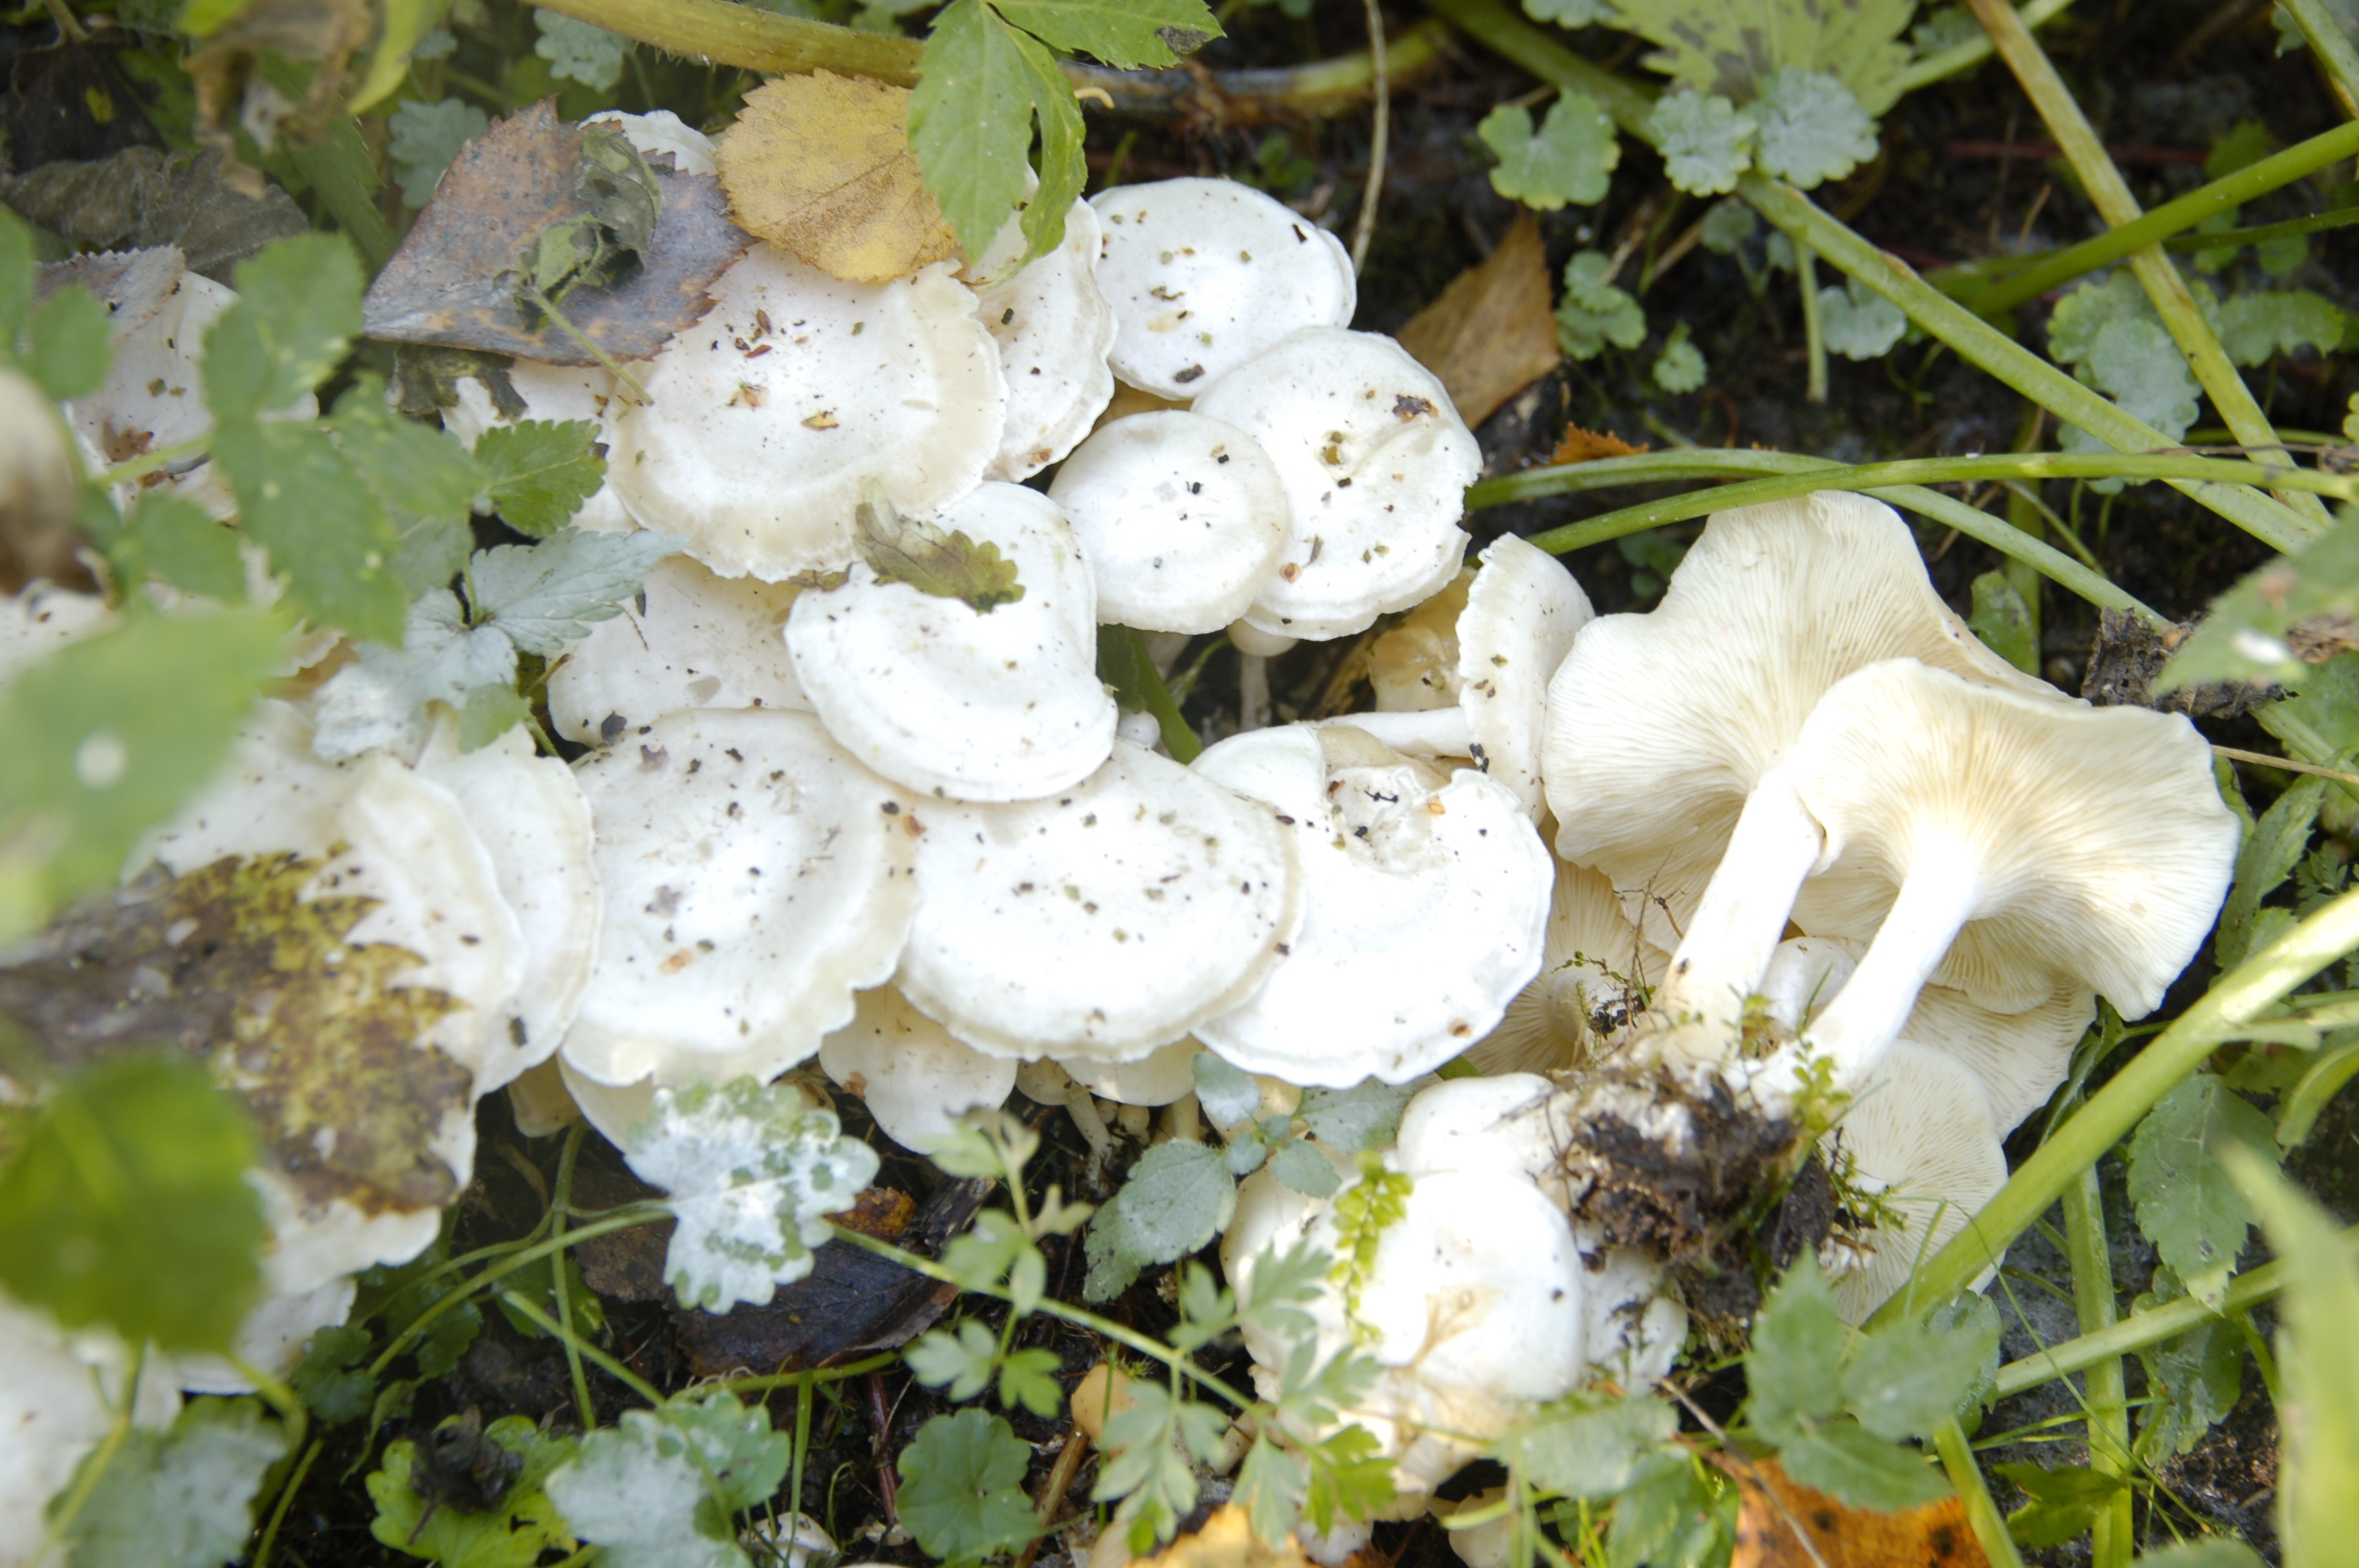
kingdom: Fungi
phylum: Basidiomycota
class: Agaricomycetes
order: Agaricales
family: Tricholomataceae
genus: Leucocybe
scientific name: Leucocybe connata
